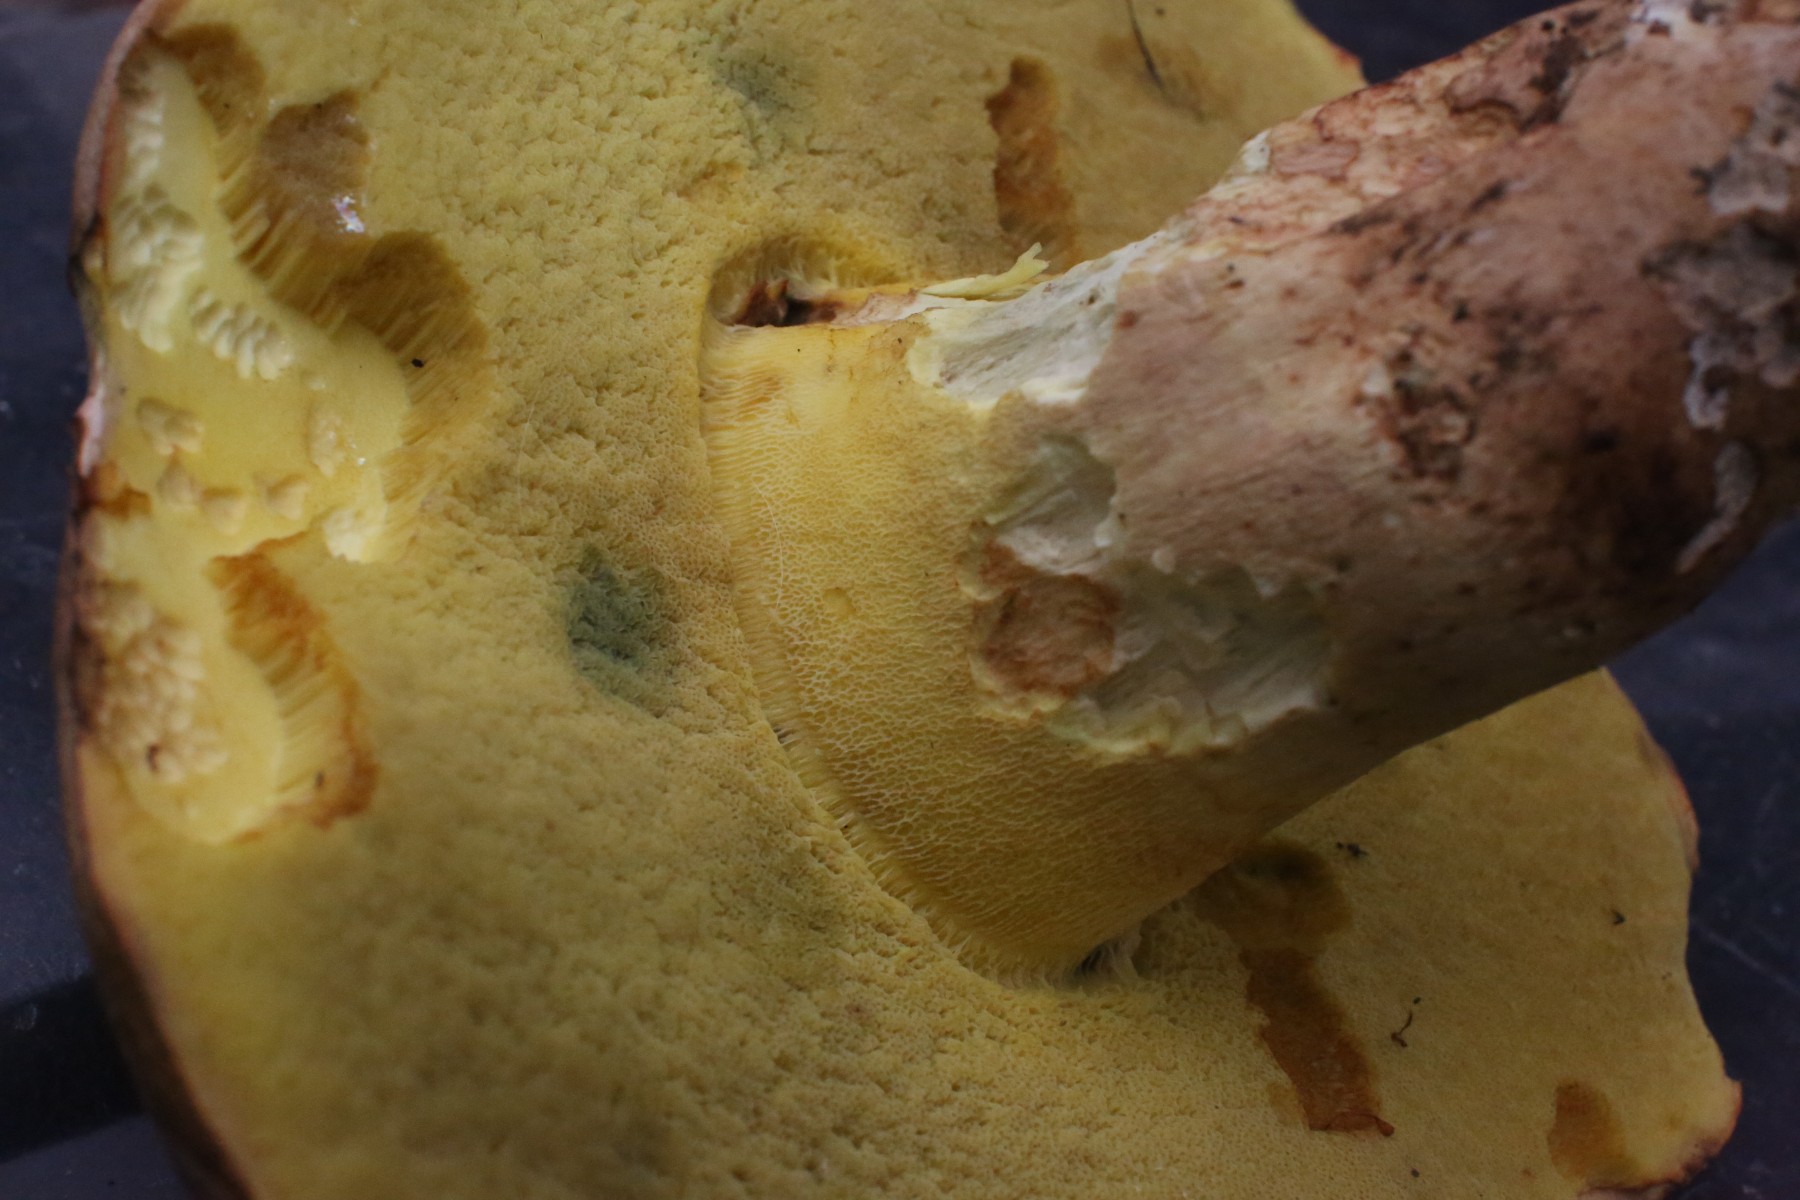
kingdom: Fungi
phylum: Basidiomycota
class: Agaricomycetes
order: Boletales
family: Boletaceae
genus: Butyriboletus
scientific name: Butyriboletus appendiculatus
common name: tenstokket rørhat
